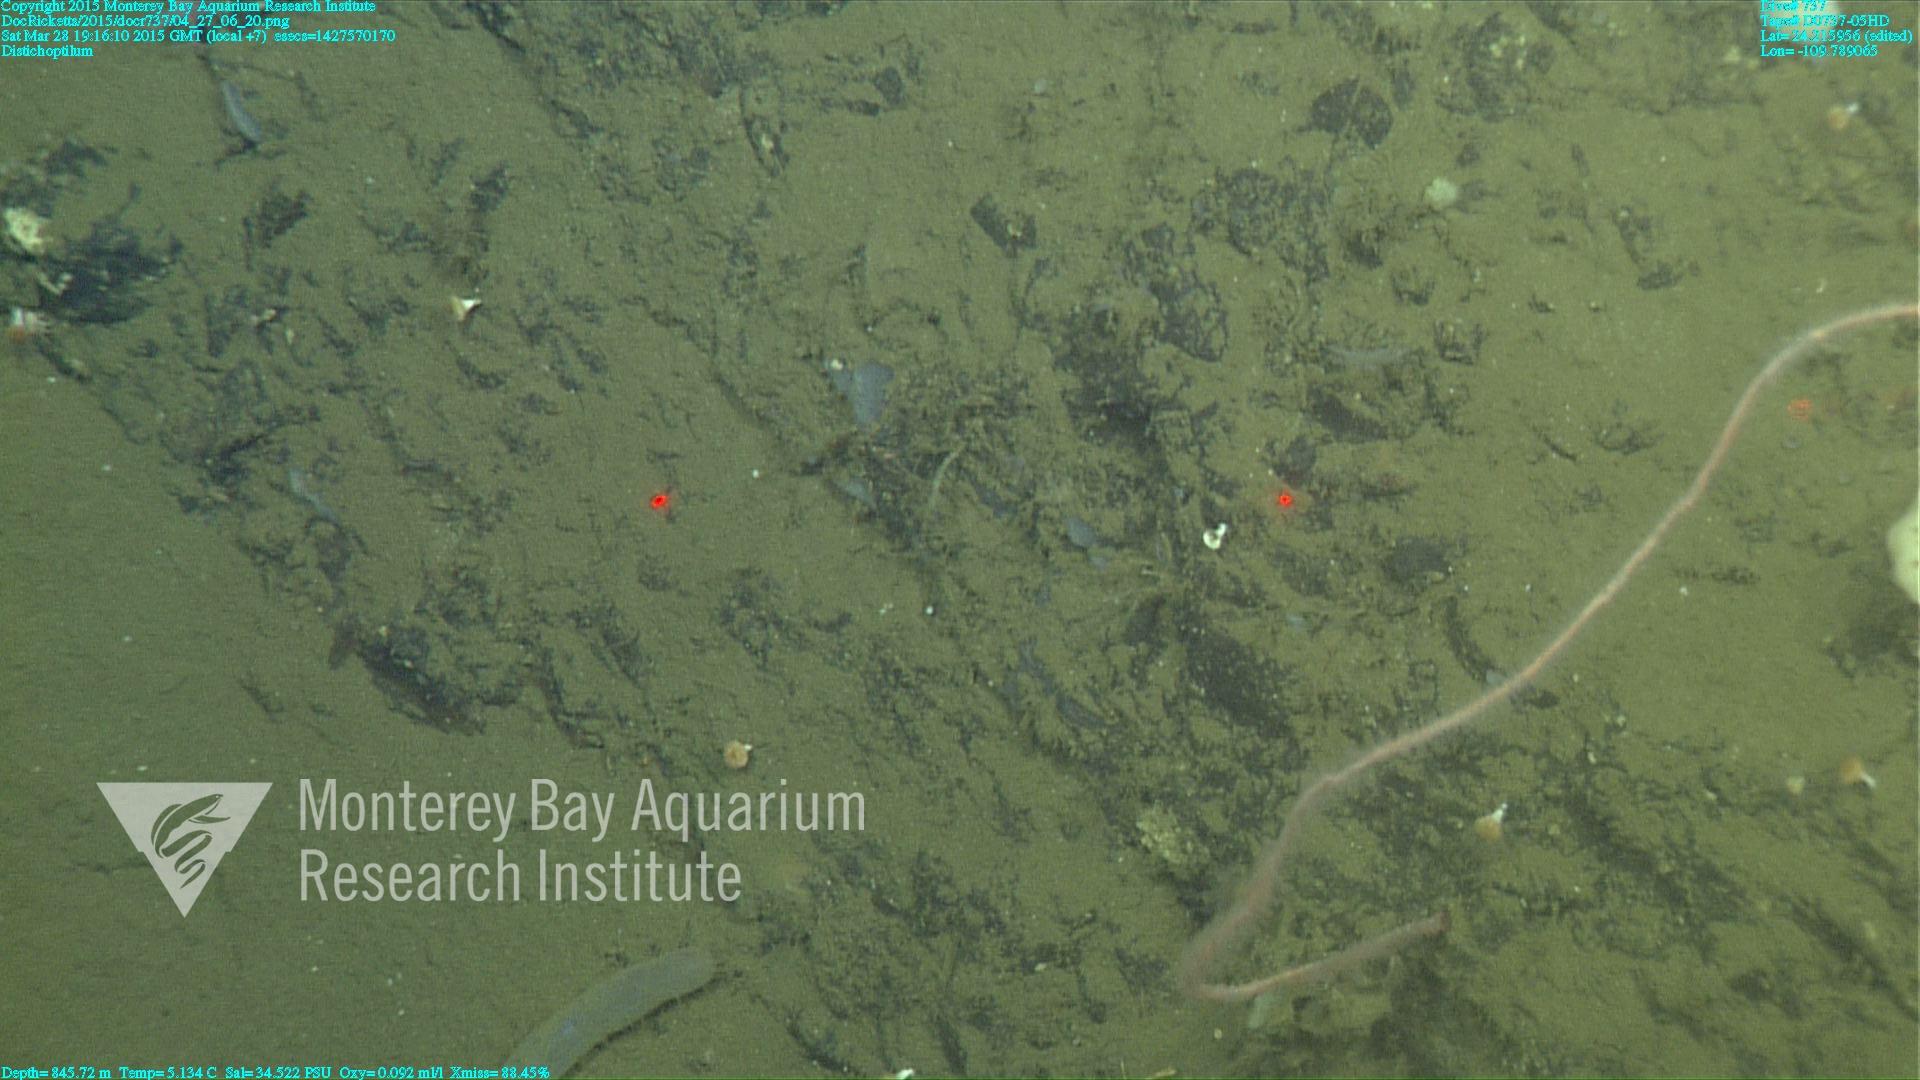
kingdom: Animalia
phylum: Cnidaria
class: Anthozoa
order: Scleralcyonacea
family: Protoptilidae
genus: Distichoptilum
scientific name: Distichoptilum
